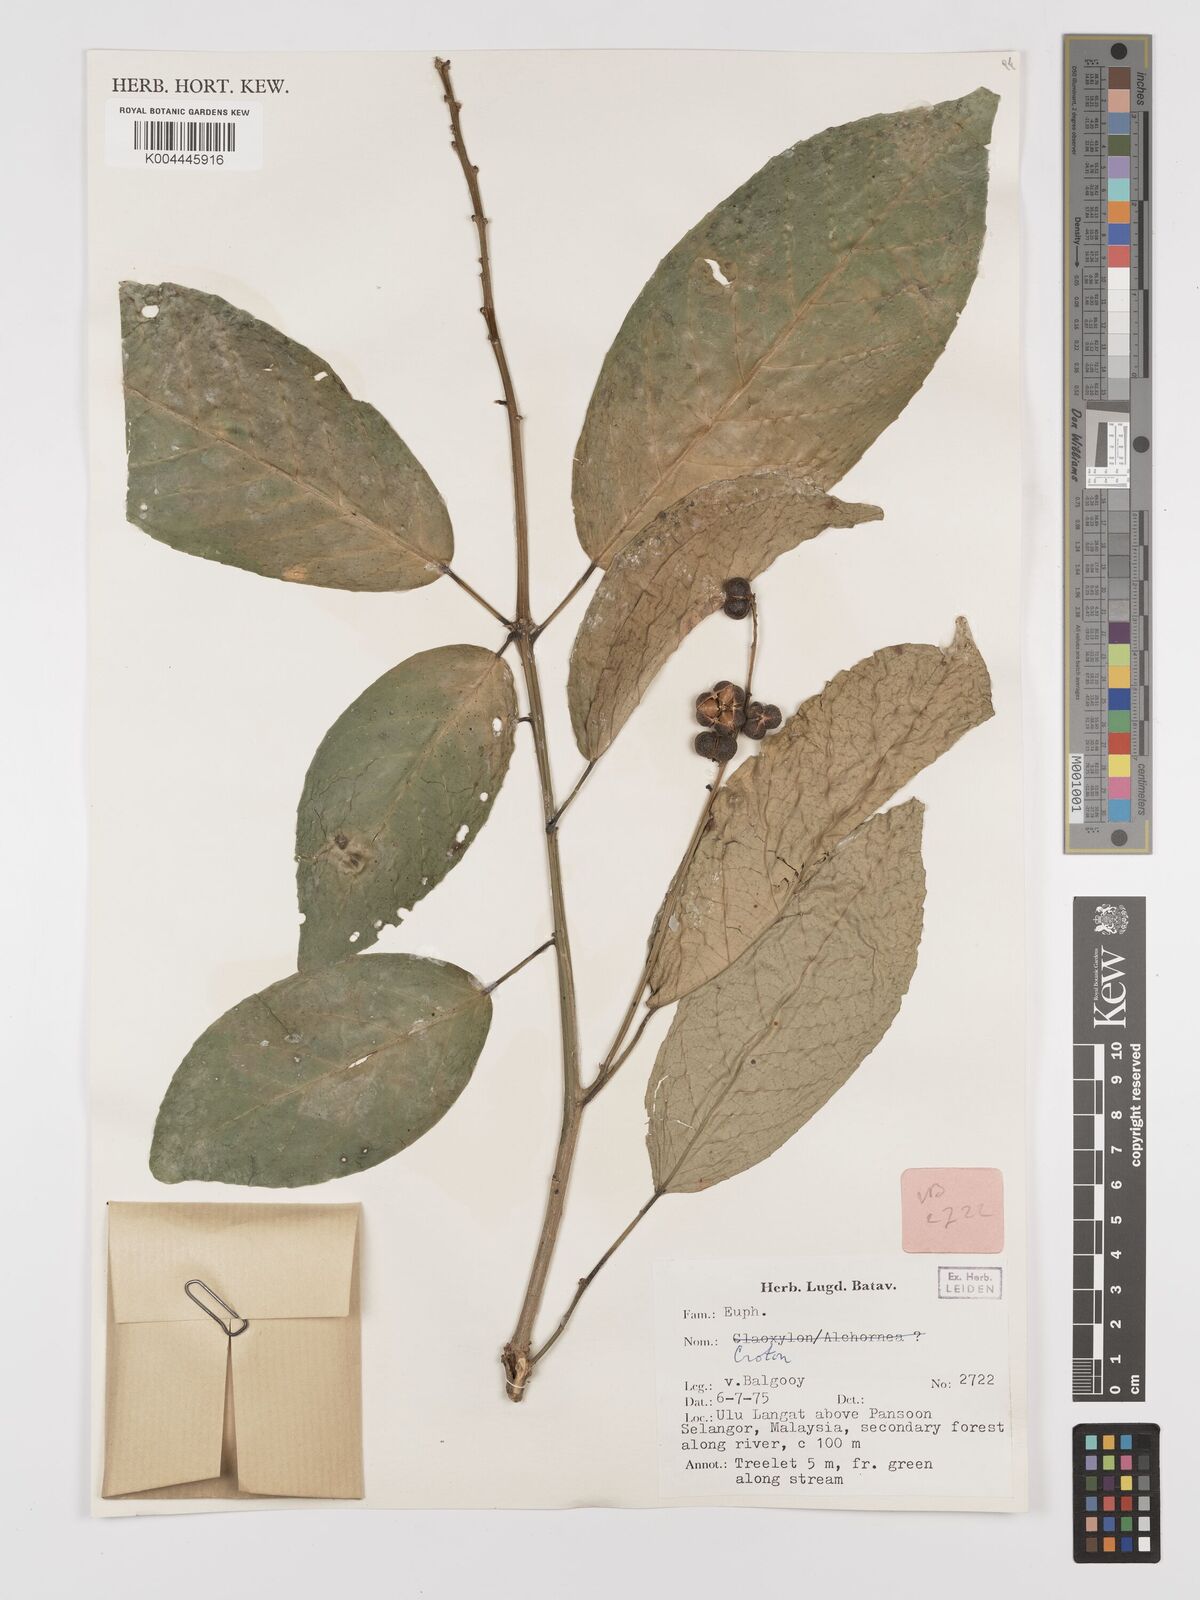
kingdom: Plantae
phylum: Tracheophyta
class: Magnoliopsida
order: Malpighiales
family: Euphorbiaceae
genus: Croton
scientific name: Croton griffithii
